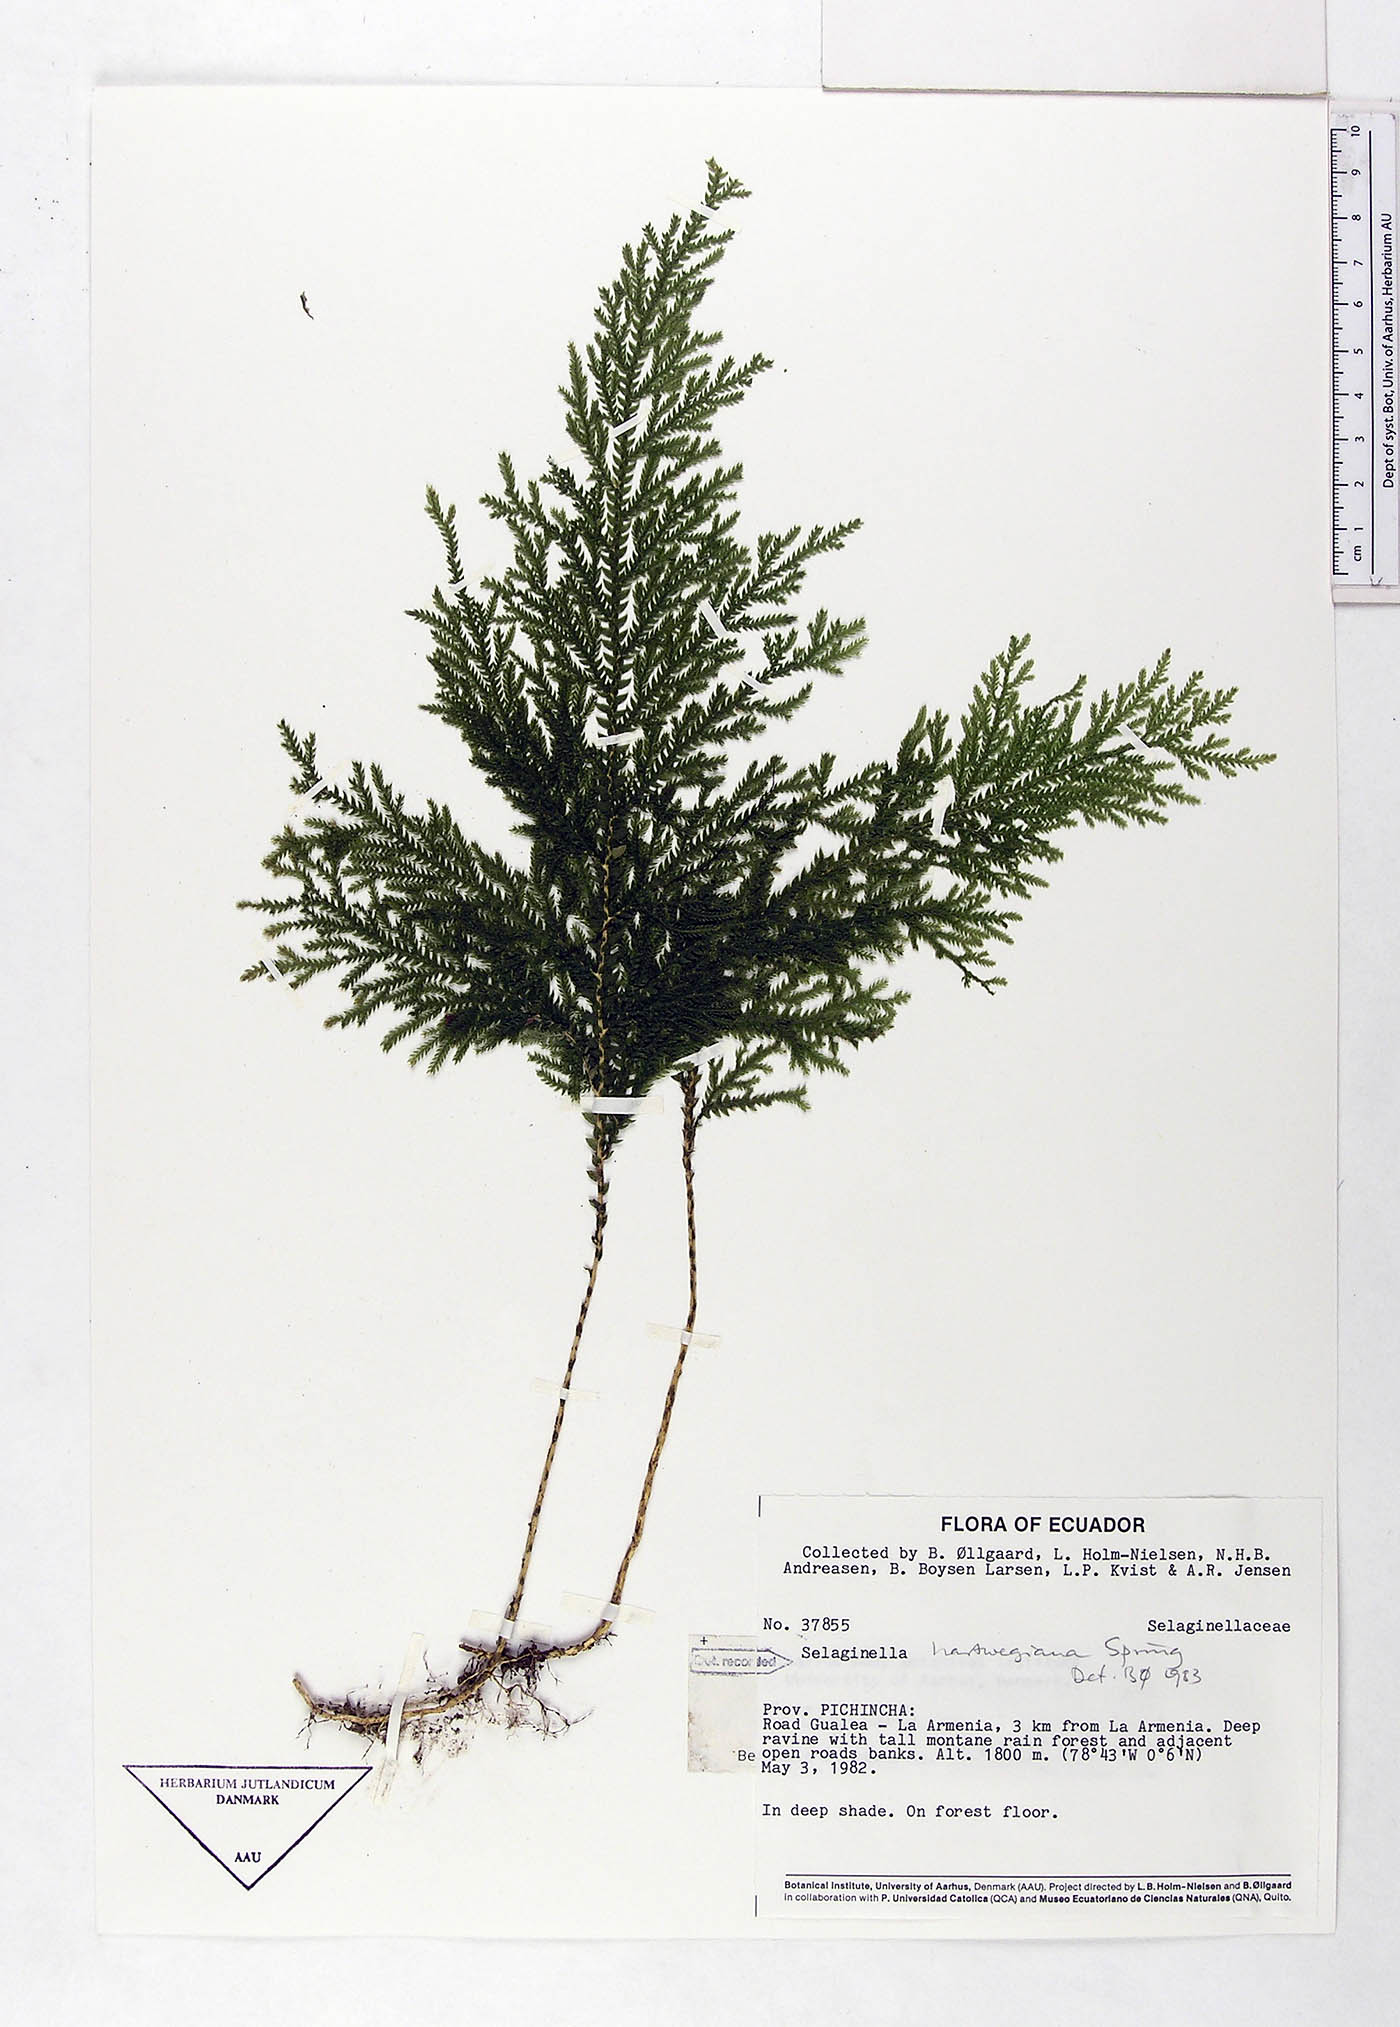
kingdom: Plantae
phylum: Tracheophyta
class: Lycopodiopsida
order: Selaginellales
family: Selaginellaceae
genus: Selaginella
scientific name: Selaginella hartwegiana
